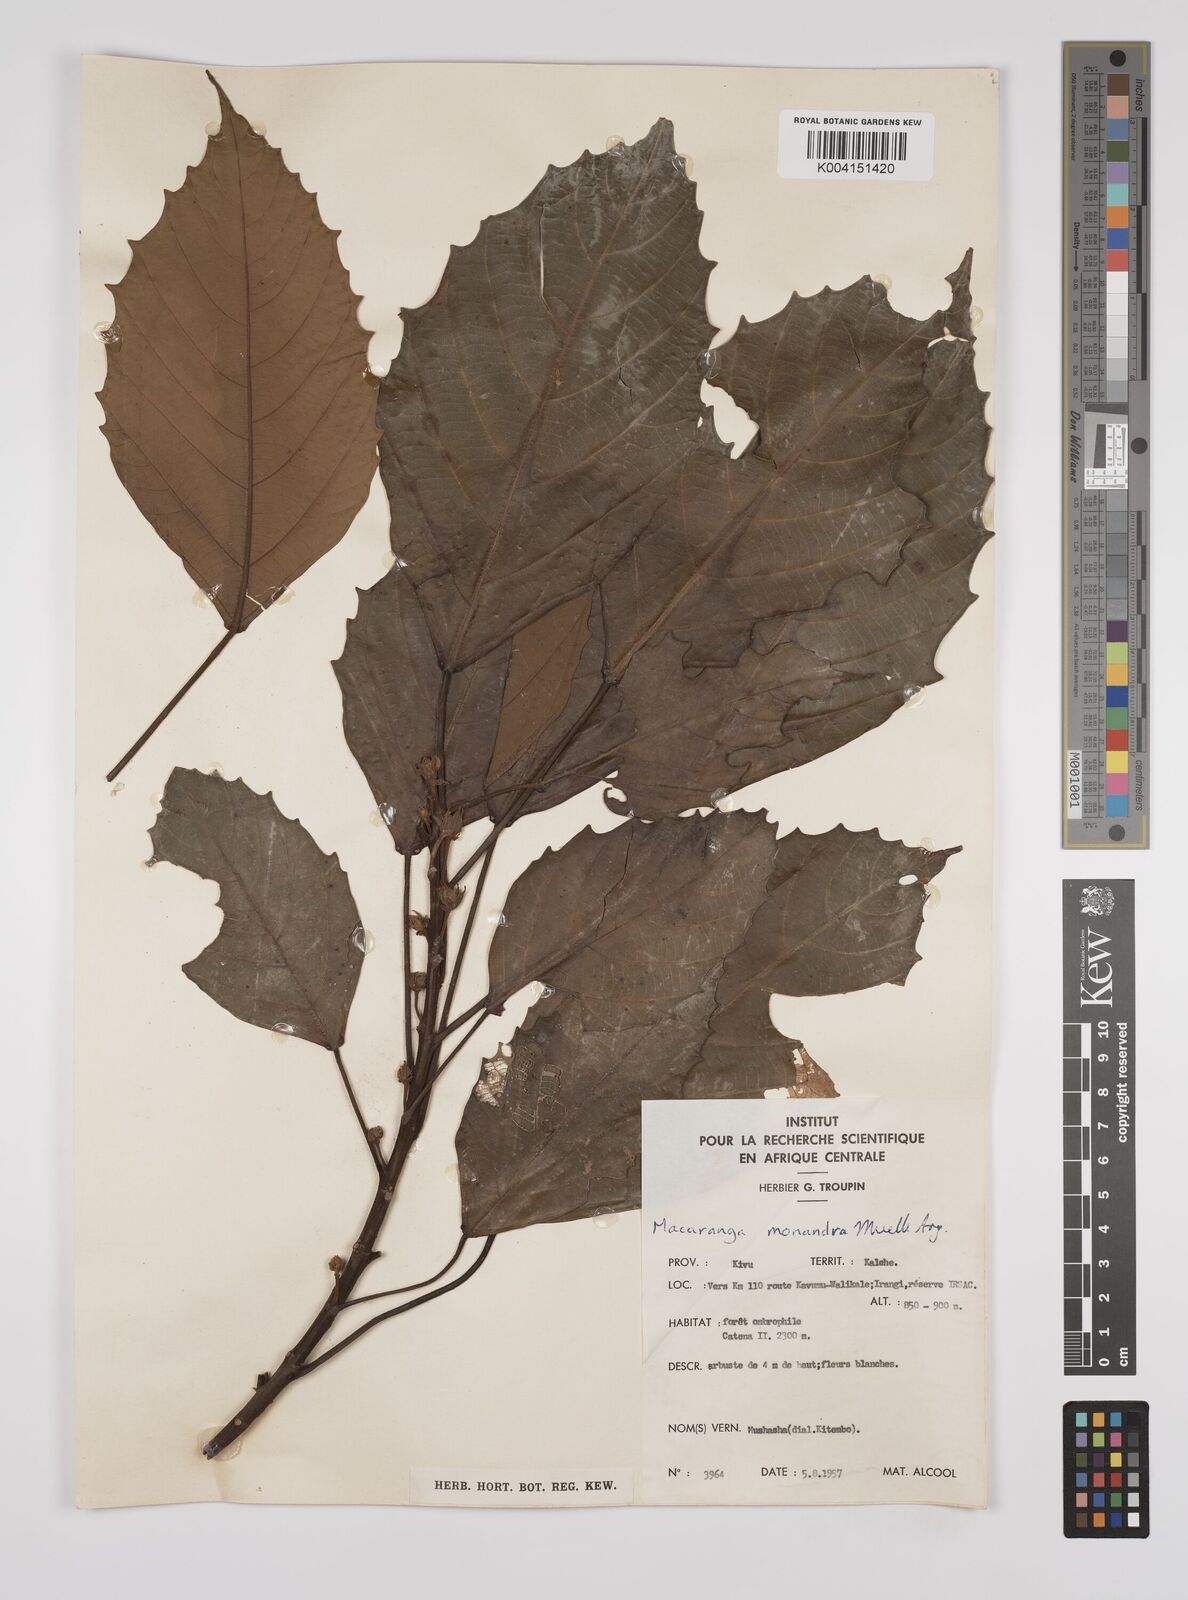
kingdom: Plantae
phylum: Tracheophyta
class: Magnoliopsida
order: Malpighiales
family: Euphorbiaceae
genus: Macaranga
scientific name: Macaranga monandra
